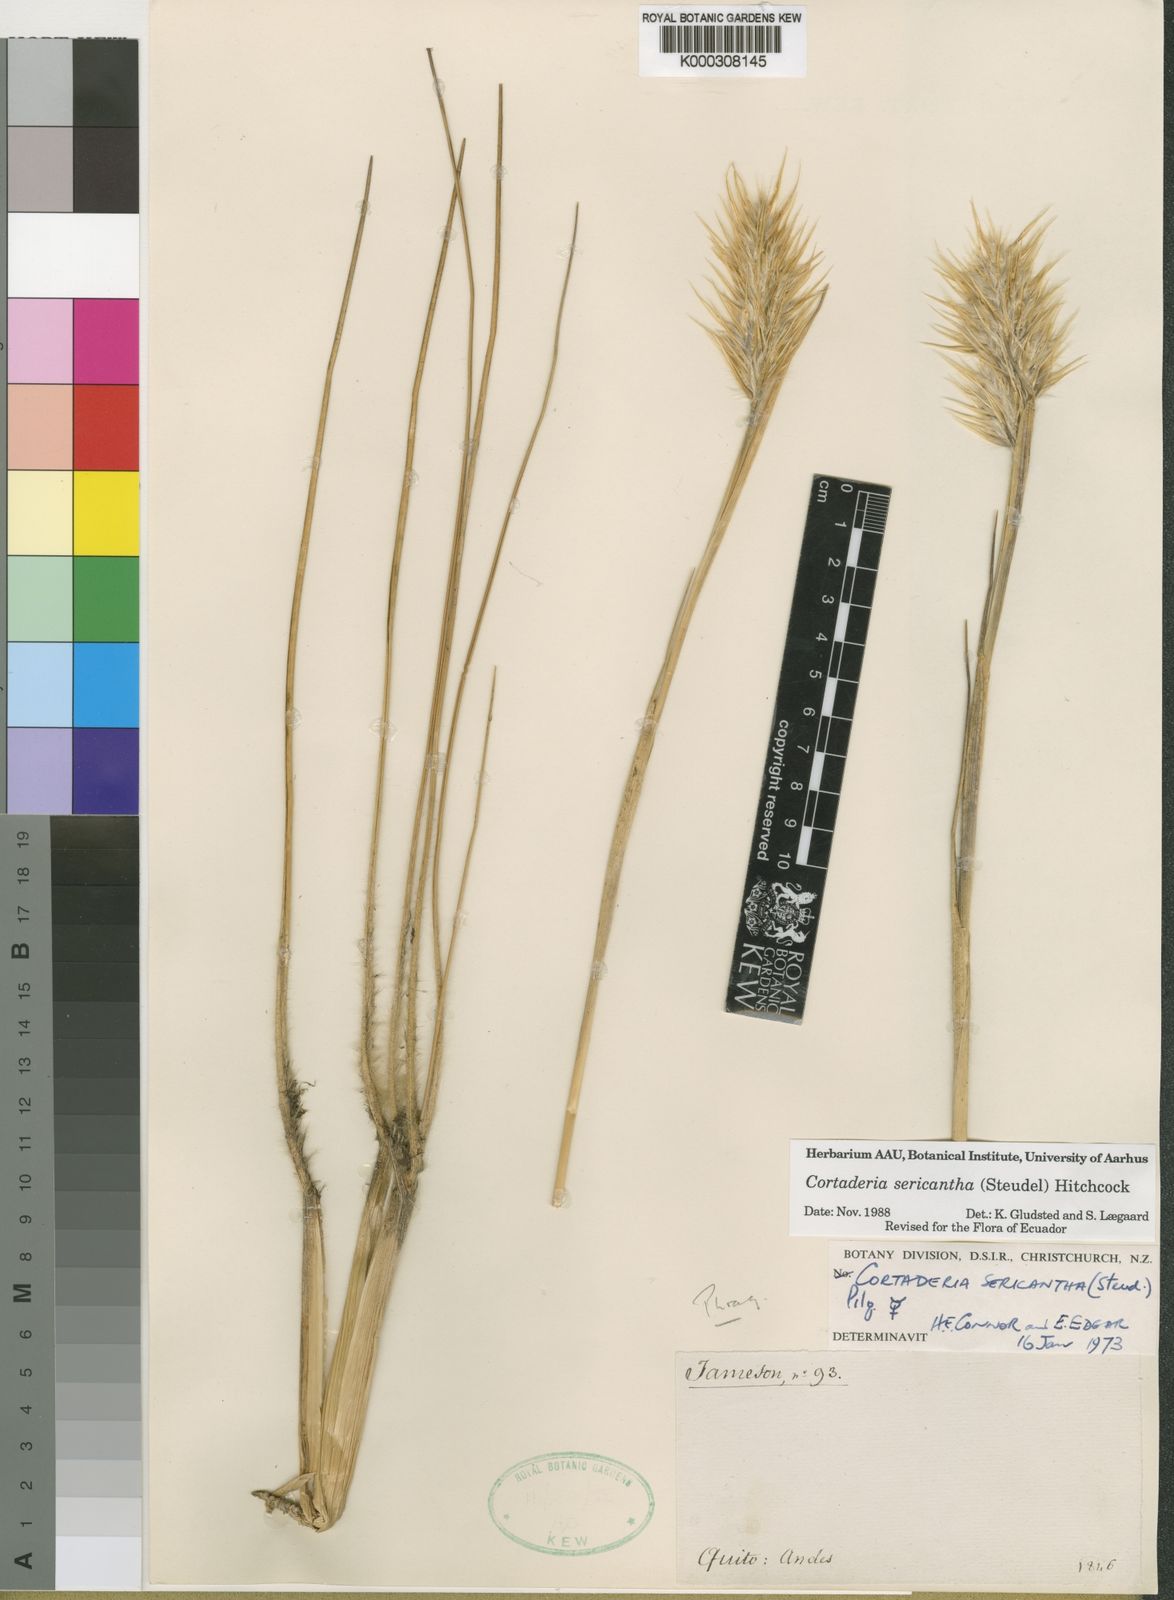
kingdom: Plantae
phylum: Tracheophyta
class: Liliopsida
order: Poales
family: Poaceae
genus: Cortaderia
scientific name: Cortaderia sericantha
